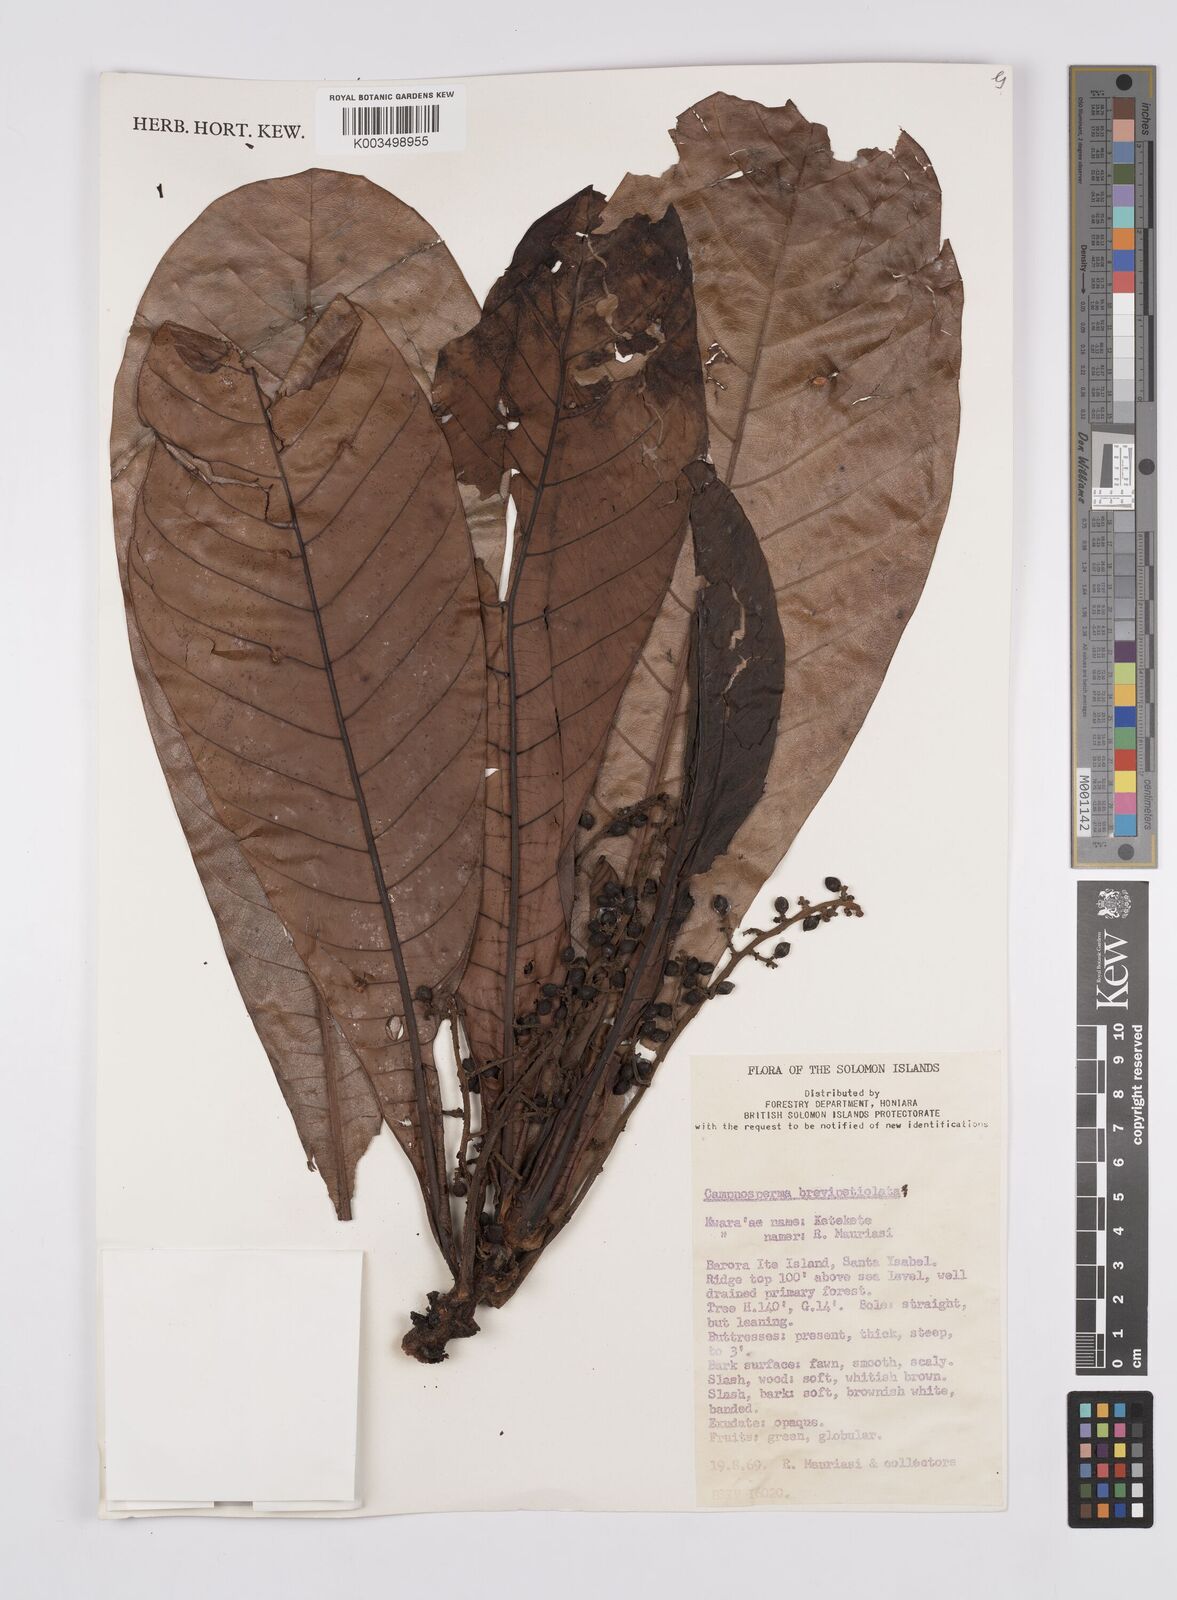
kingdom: Plantae
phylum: Tracheophyta
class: Magnoliopsida
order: Sapindales
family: Anacardiaceae
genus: Campnosperma
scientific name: Campnosperma brevipetiolatum
